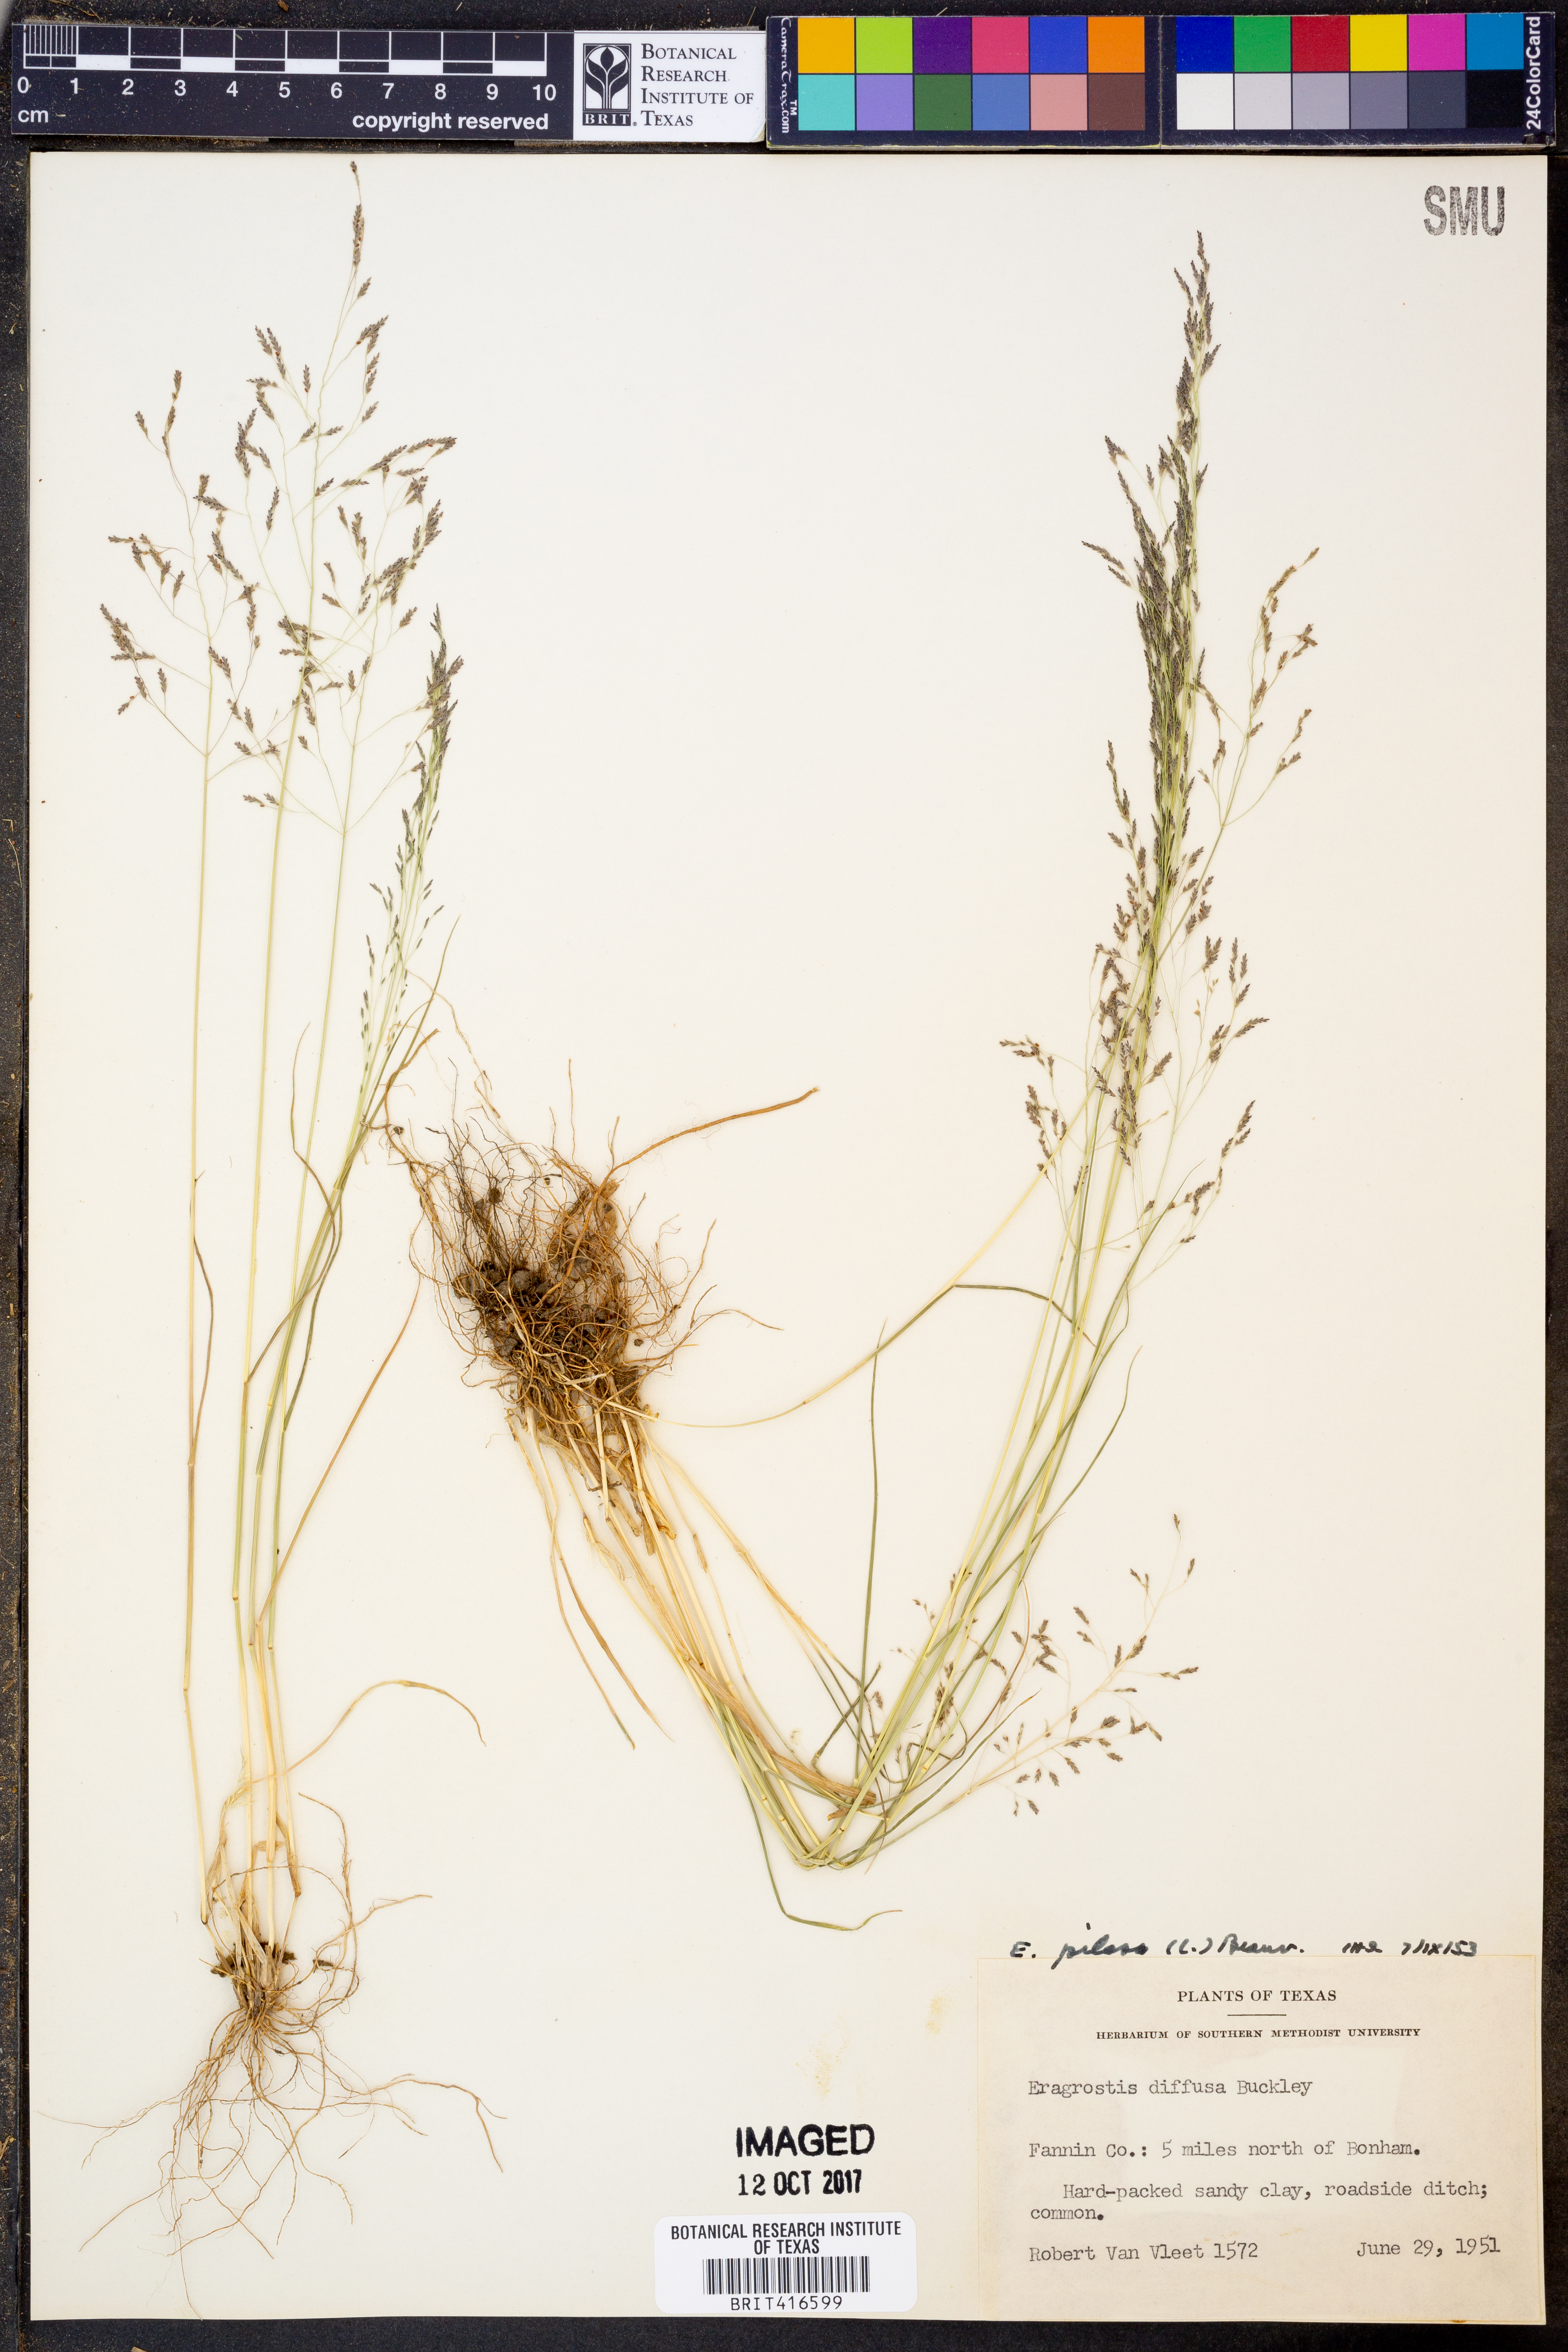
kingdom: Plantae
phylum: Tracheophyta
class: Liliopsida
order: Poales
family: Poaceae
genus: Eragrostis
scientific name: Eragrostis pectinacea
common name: Tufted lovegrass
